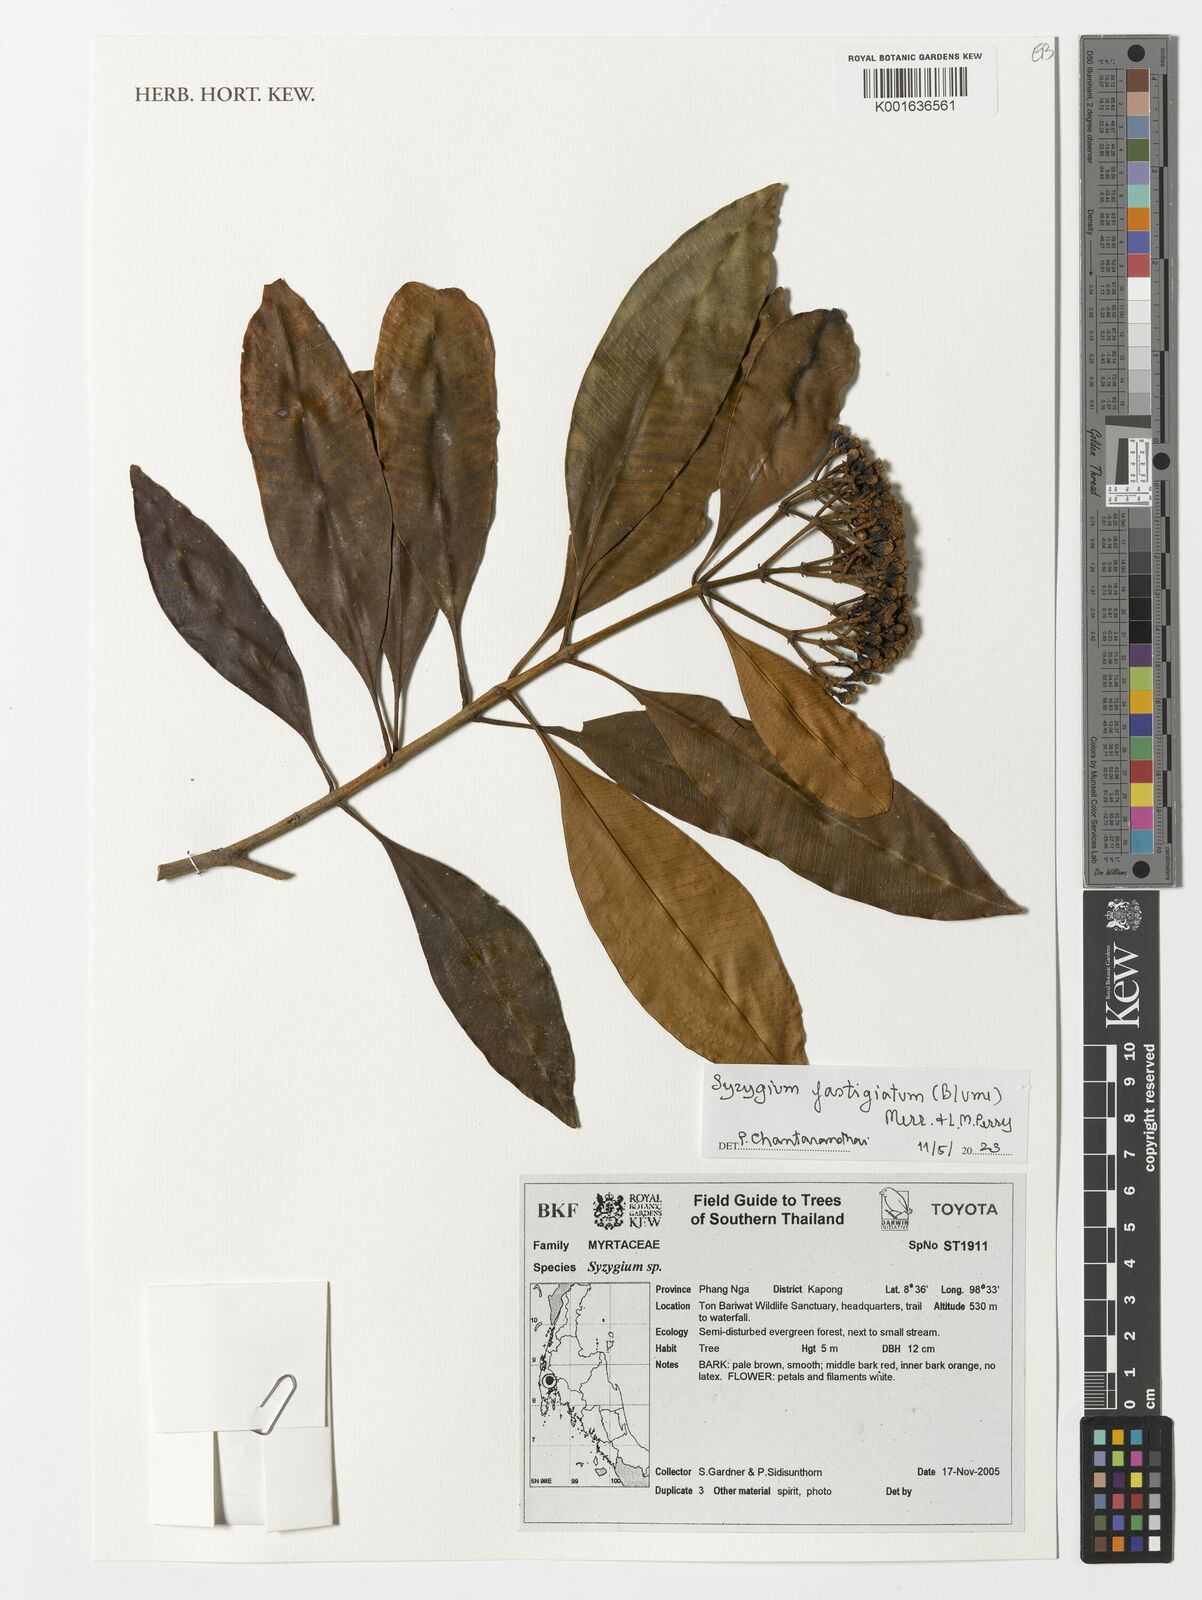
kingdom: Plantae
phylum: Tracheophyta
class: Magnoliopsida
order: Myrtales
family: Myrtaceae
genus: Syzygium
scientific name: Syzygium fastigiatum
